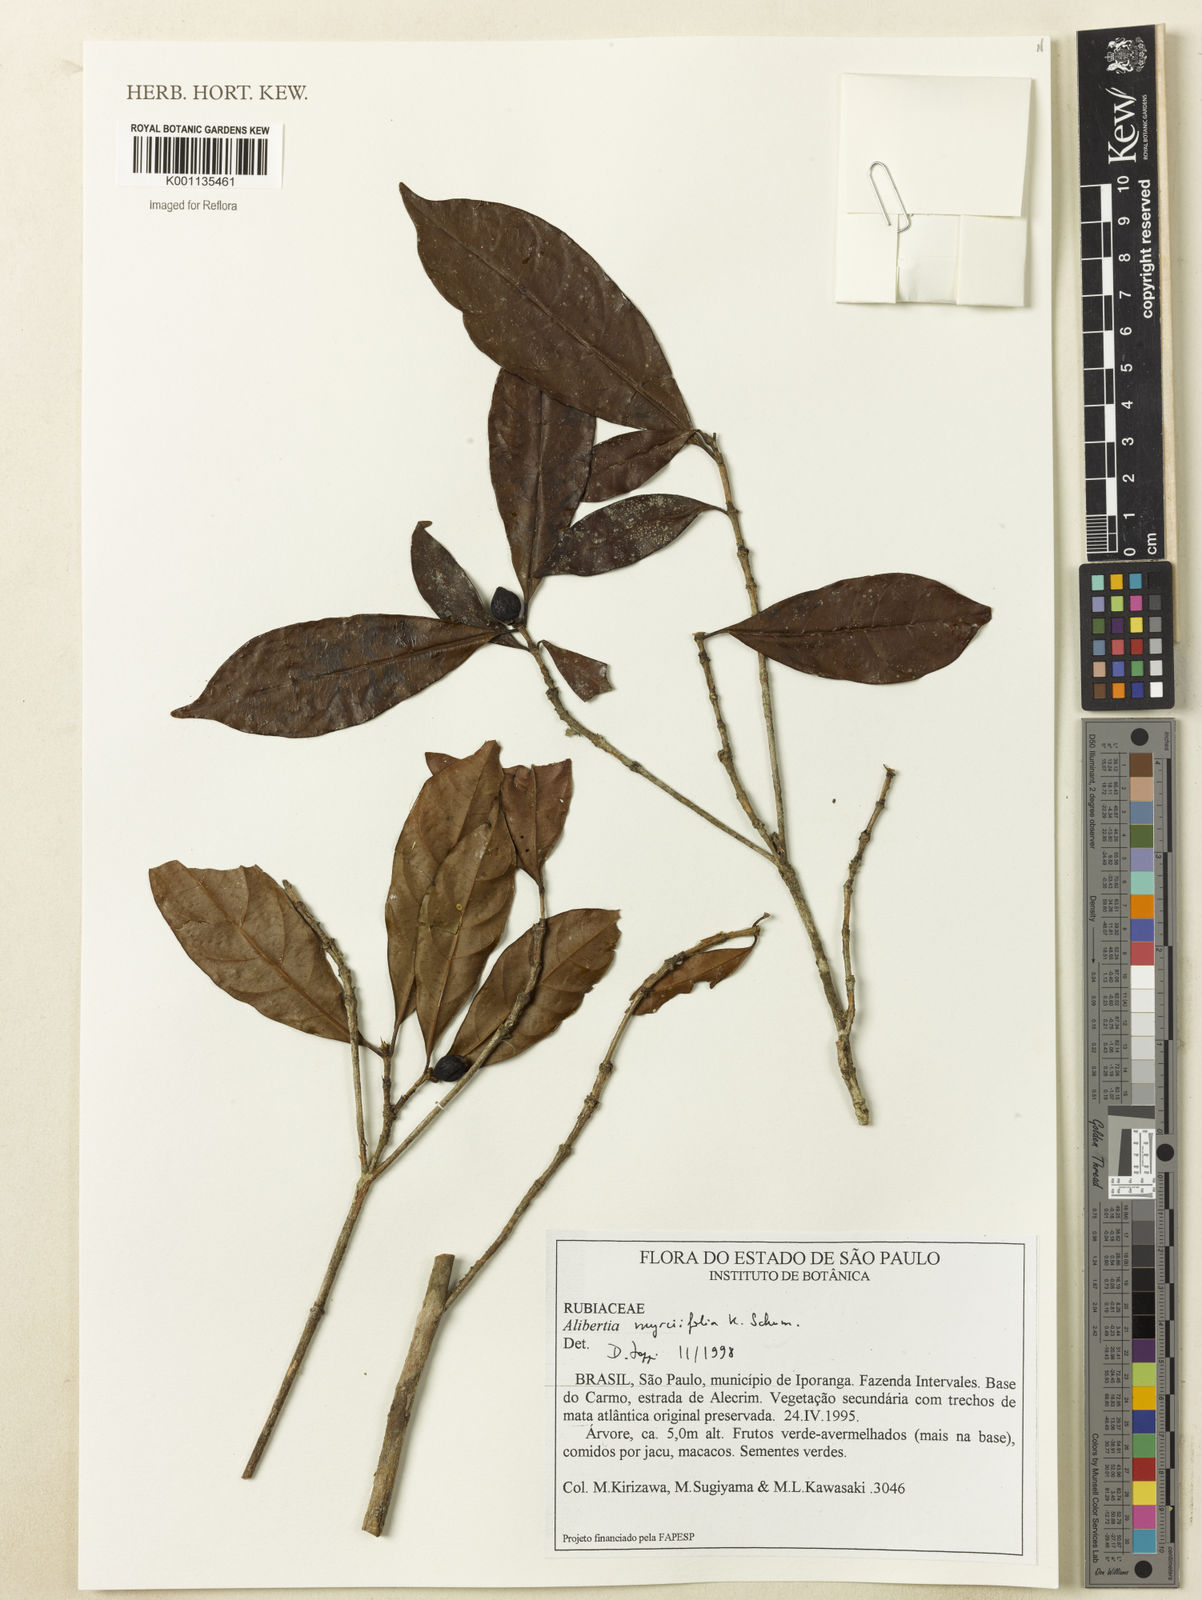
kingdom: Plantae
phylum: Tracheophyta
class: Magnoliopsida
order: Gentianales
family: Rubiaceae
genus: Cordiera
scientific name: Cordiera myrciifolia
